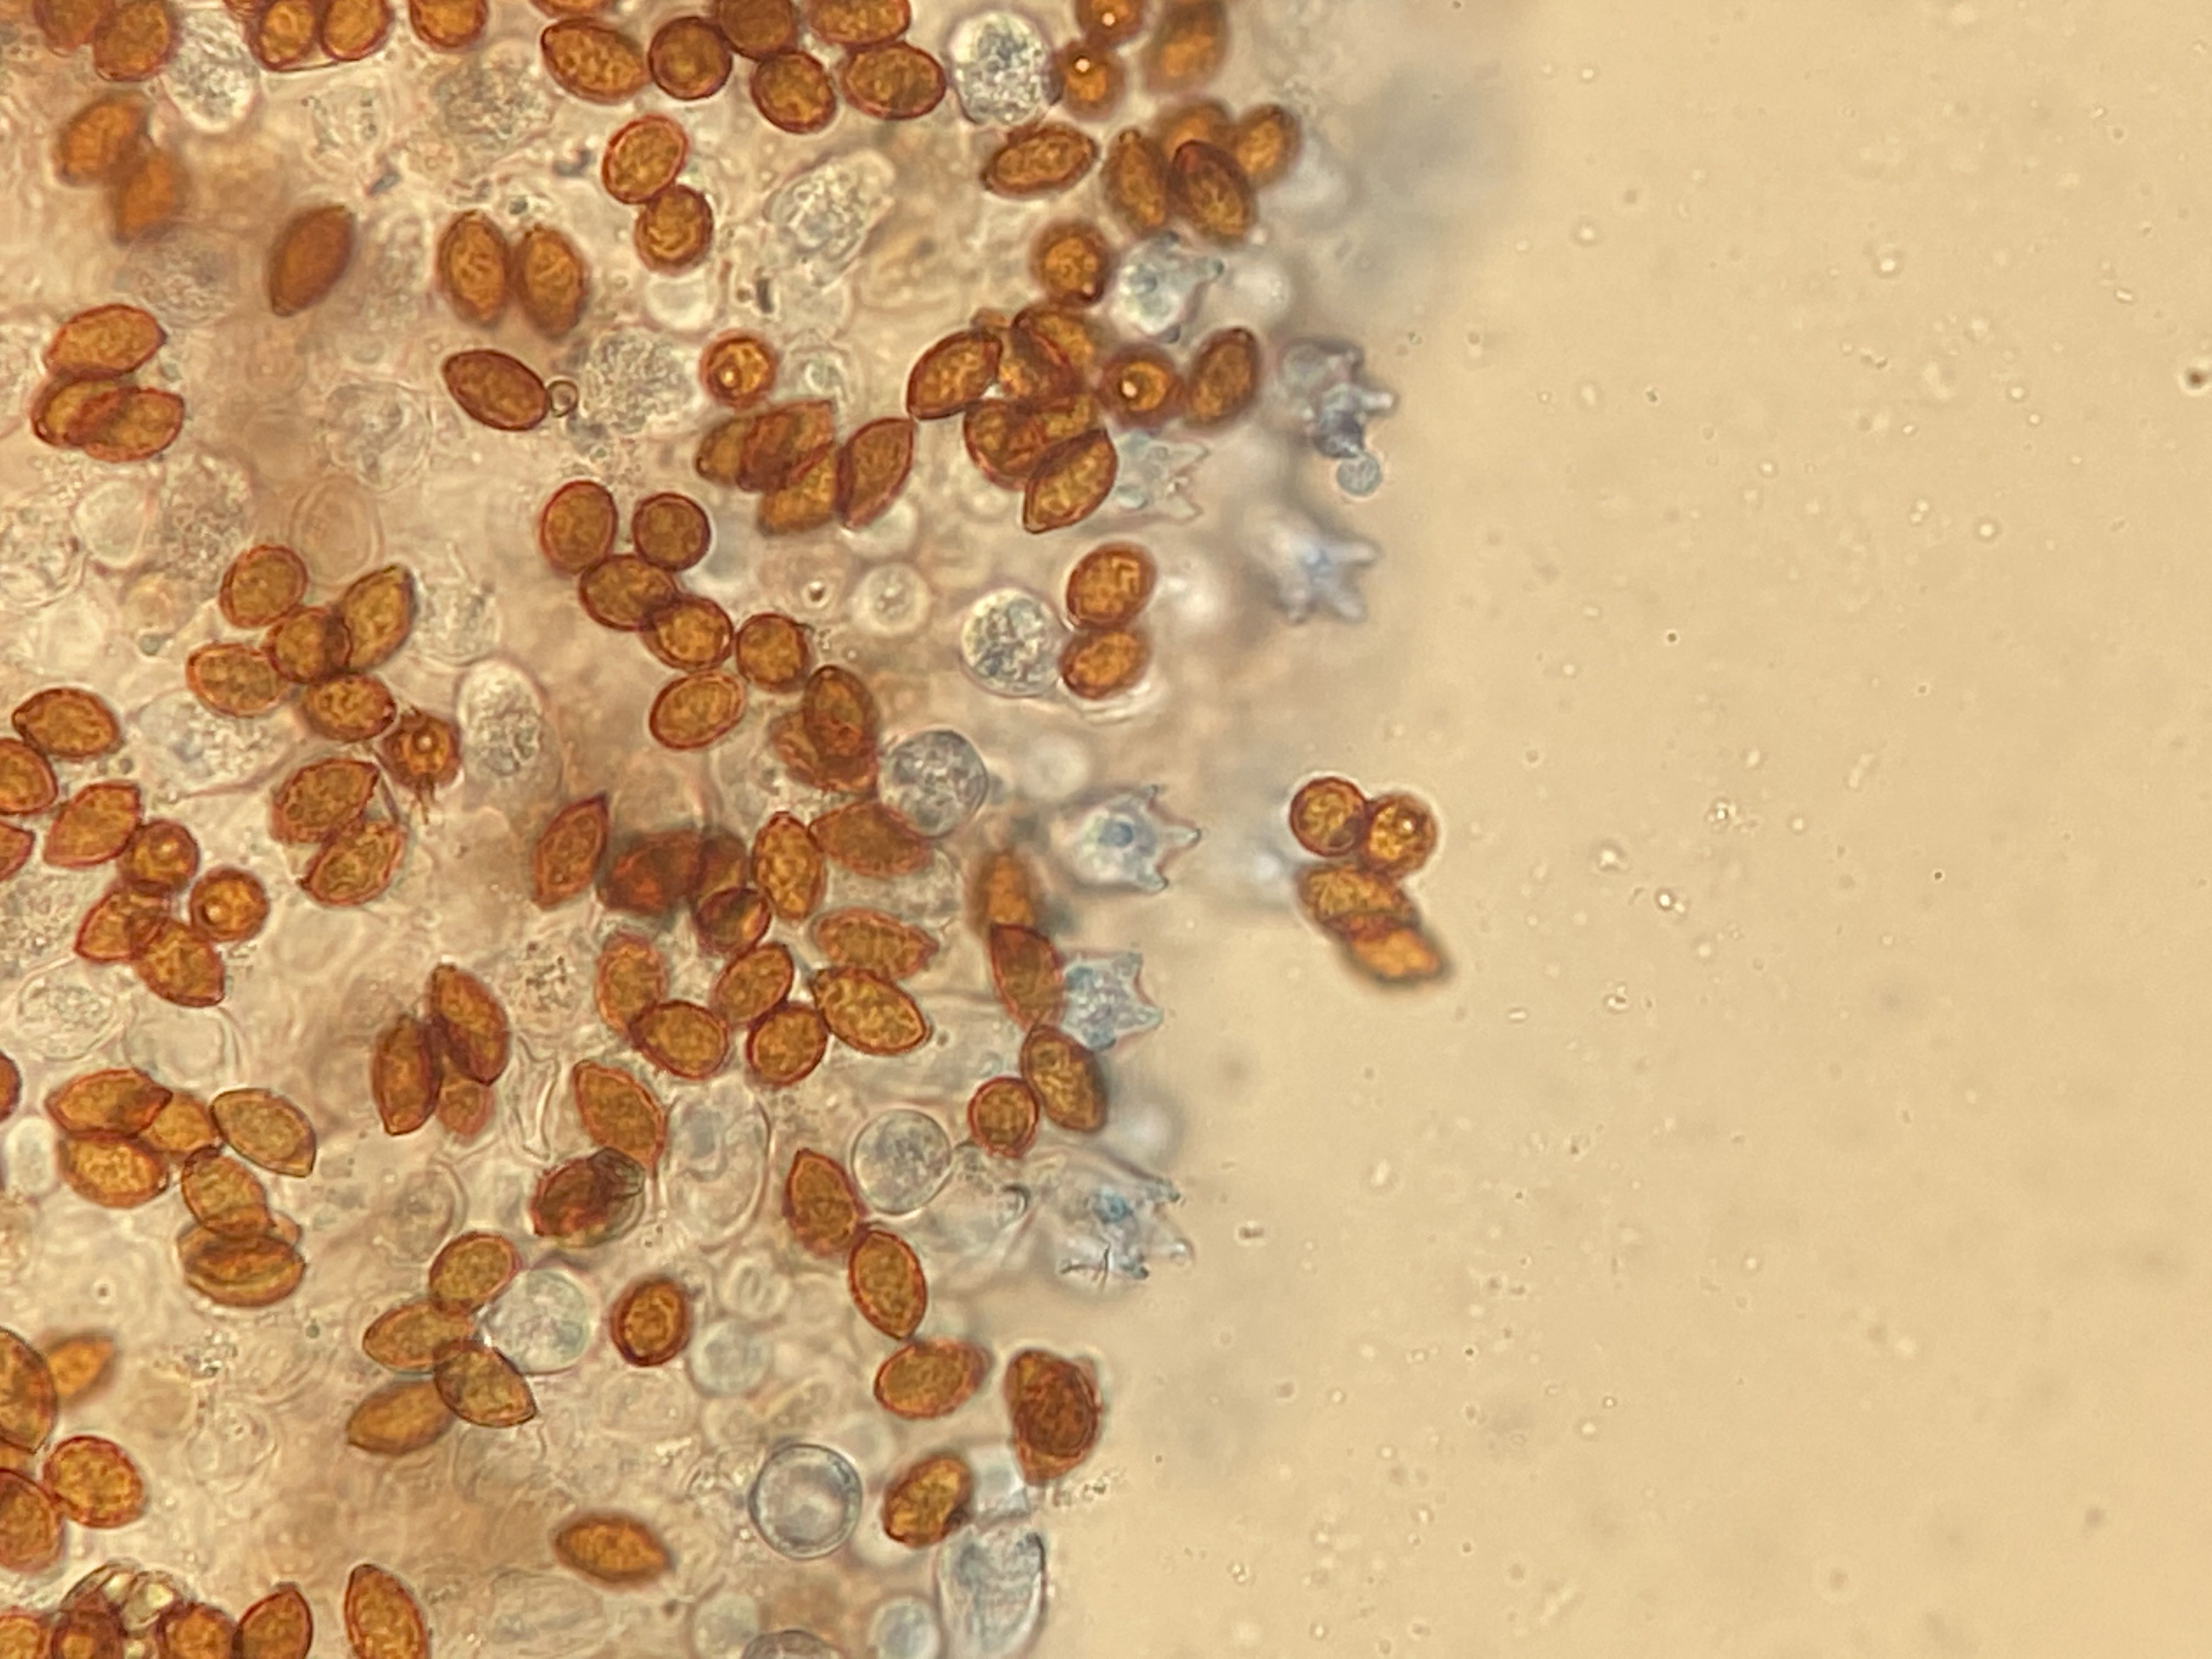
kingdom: Fungi
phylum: Basidiomycota
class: Agaricomycetes
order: Agaricales
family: Bolbitiaceae
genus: Panaeolina
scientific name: Panaeolina foenisecii
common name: høslætsvamp
